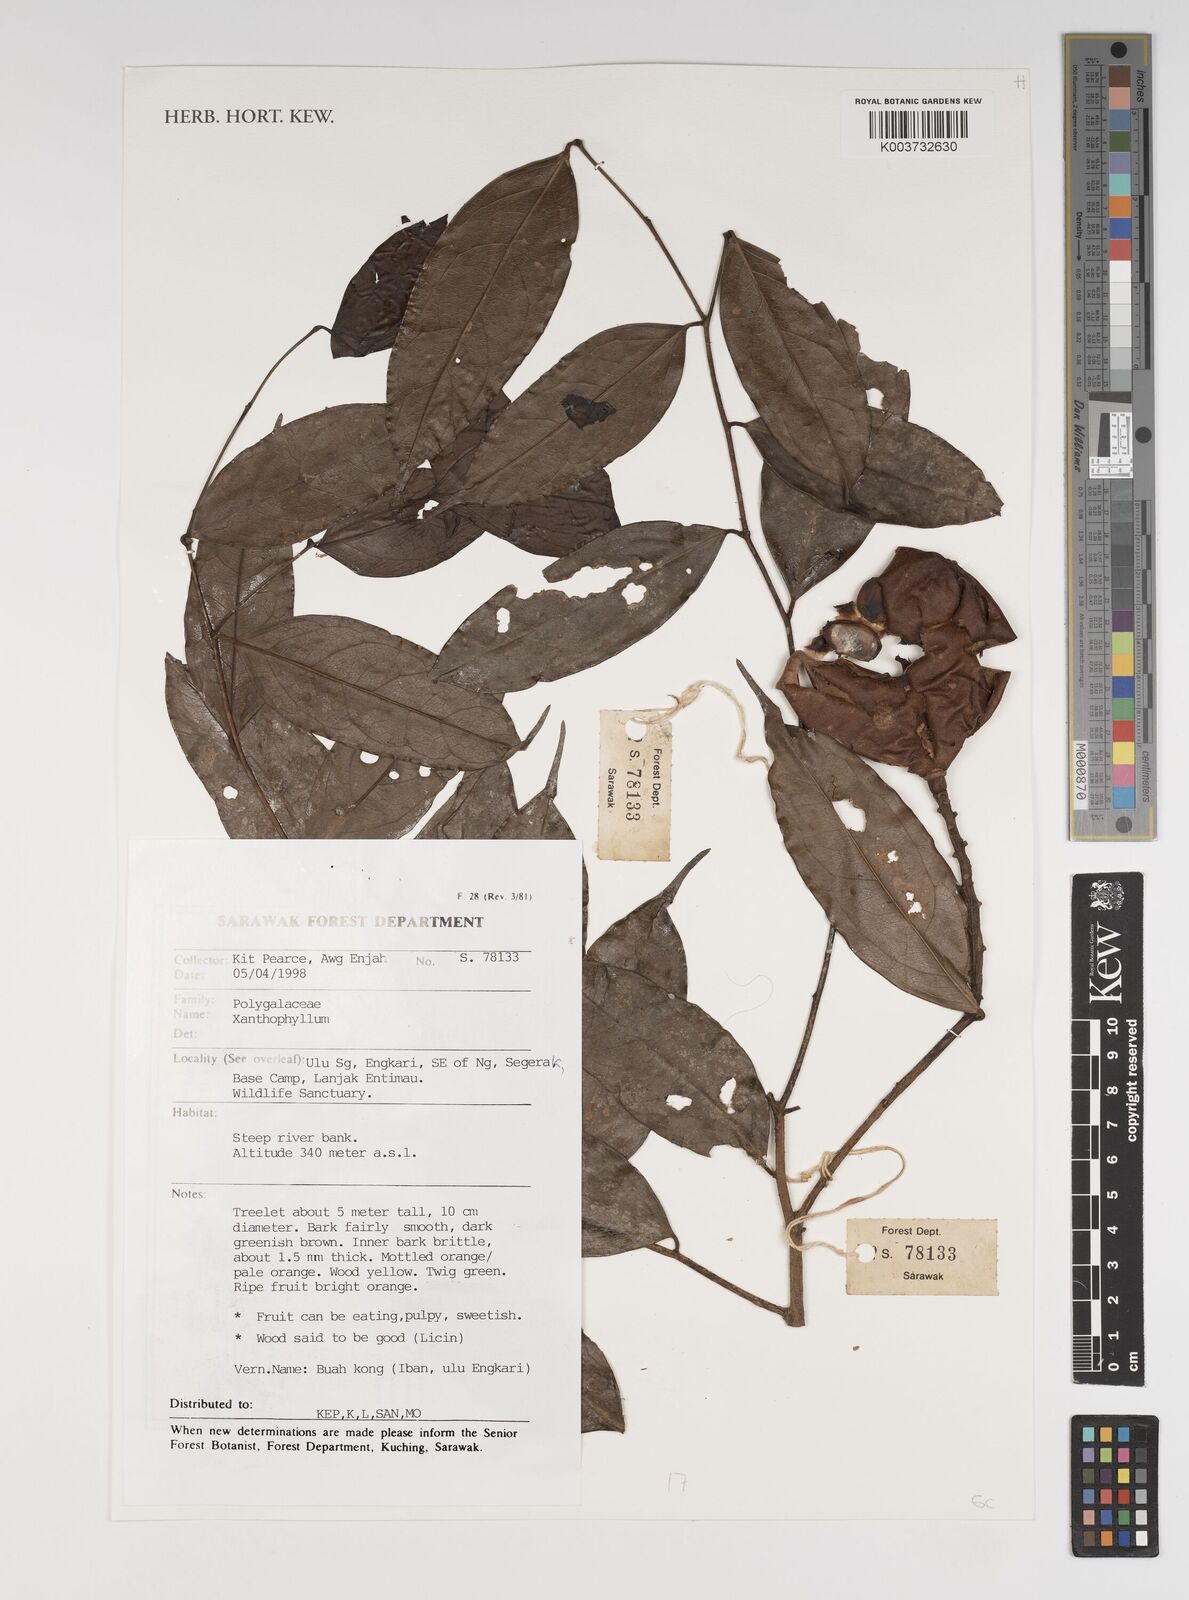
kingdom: Plantae
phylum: Tracheophyta
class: Magnoliopsida
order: Fabales
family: Polygalaceae
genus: Xanthophyllum
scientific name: Xanthophyllum
